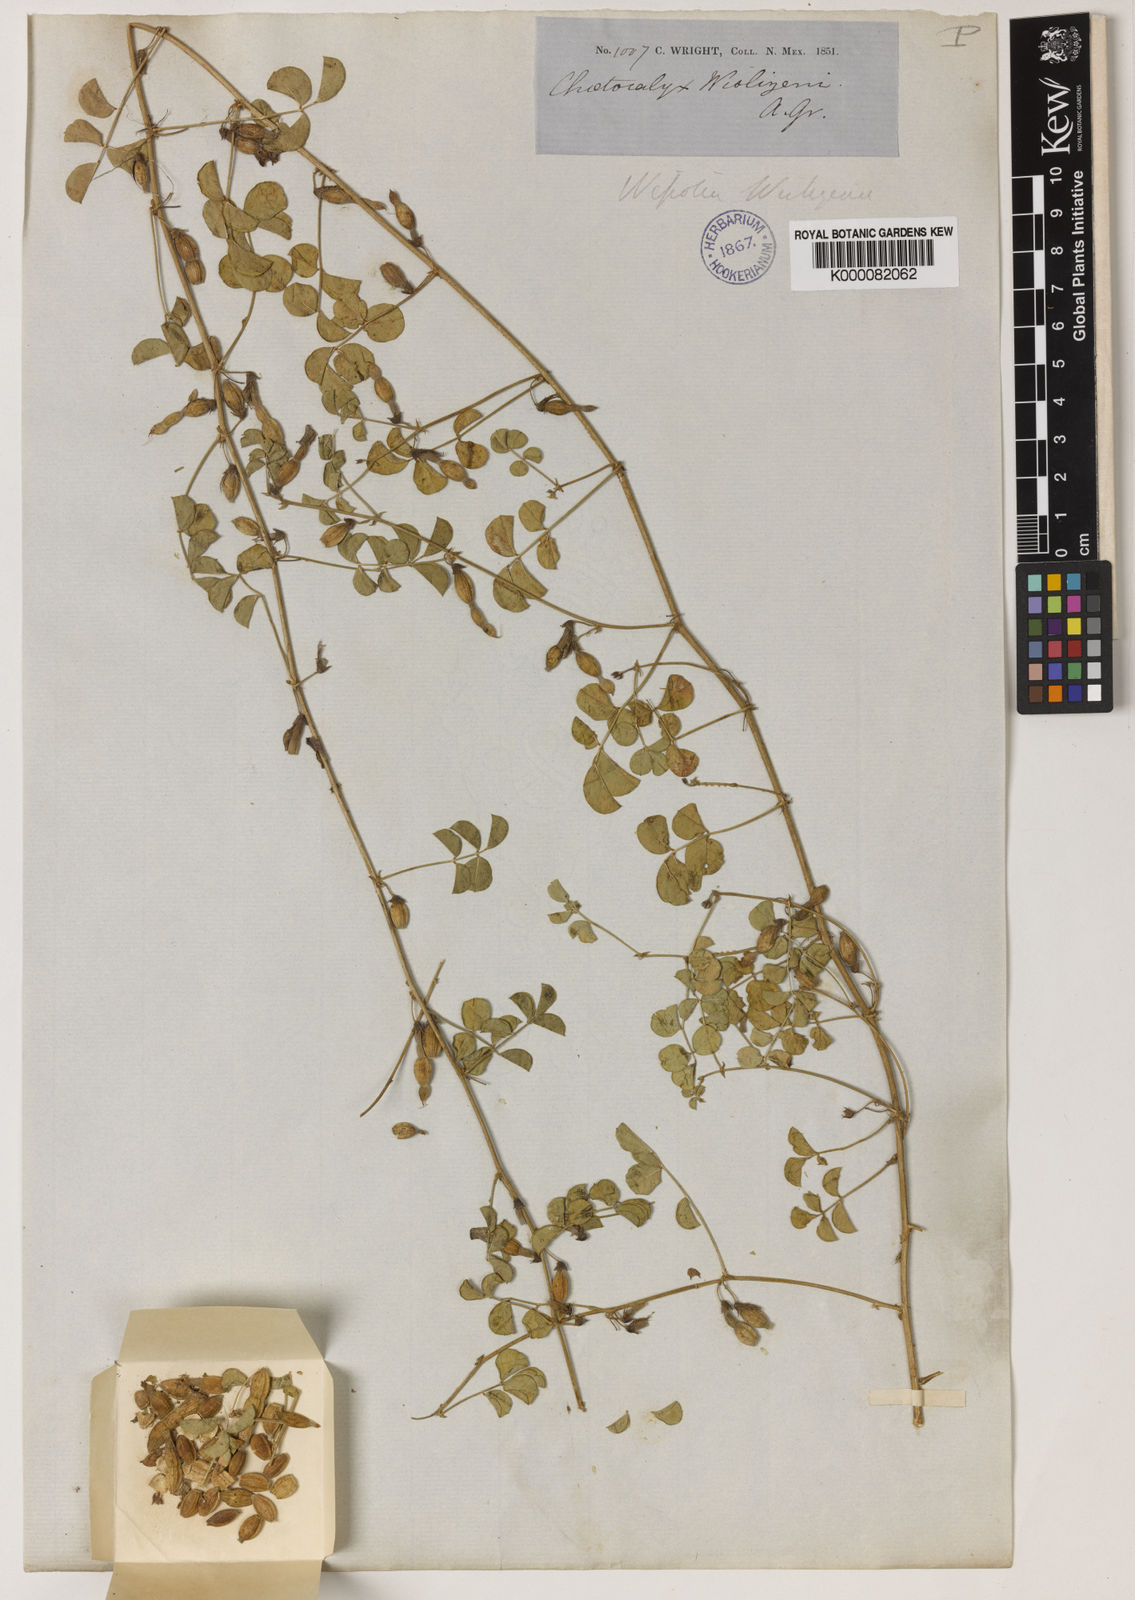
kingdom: Plantae
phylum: Tracheophyta
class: Magnoliopsida
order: Fabales
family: Fabaceae
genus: Nissolia
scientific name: Nissolia wislizeni
